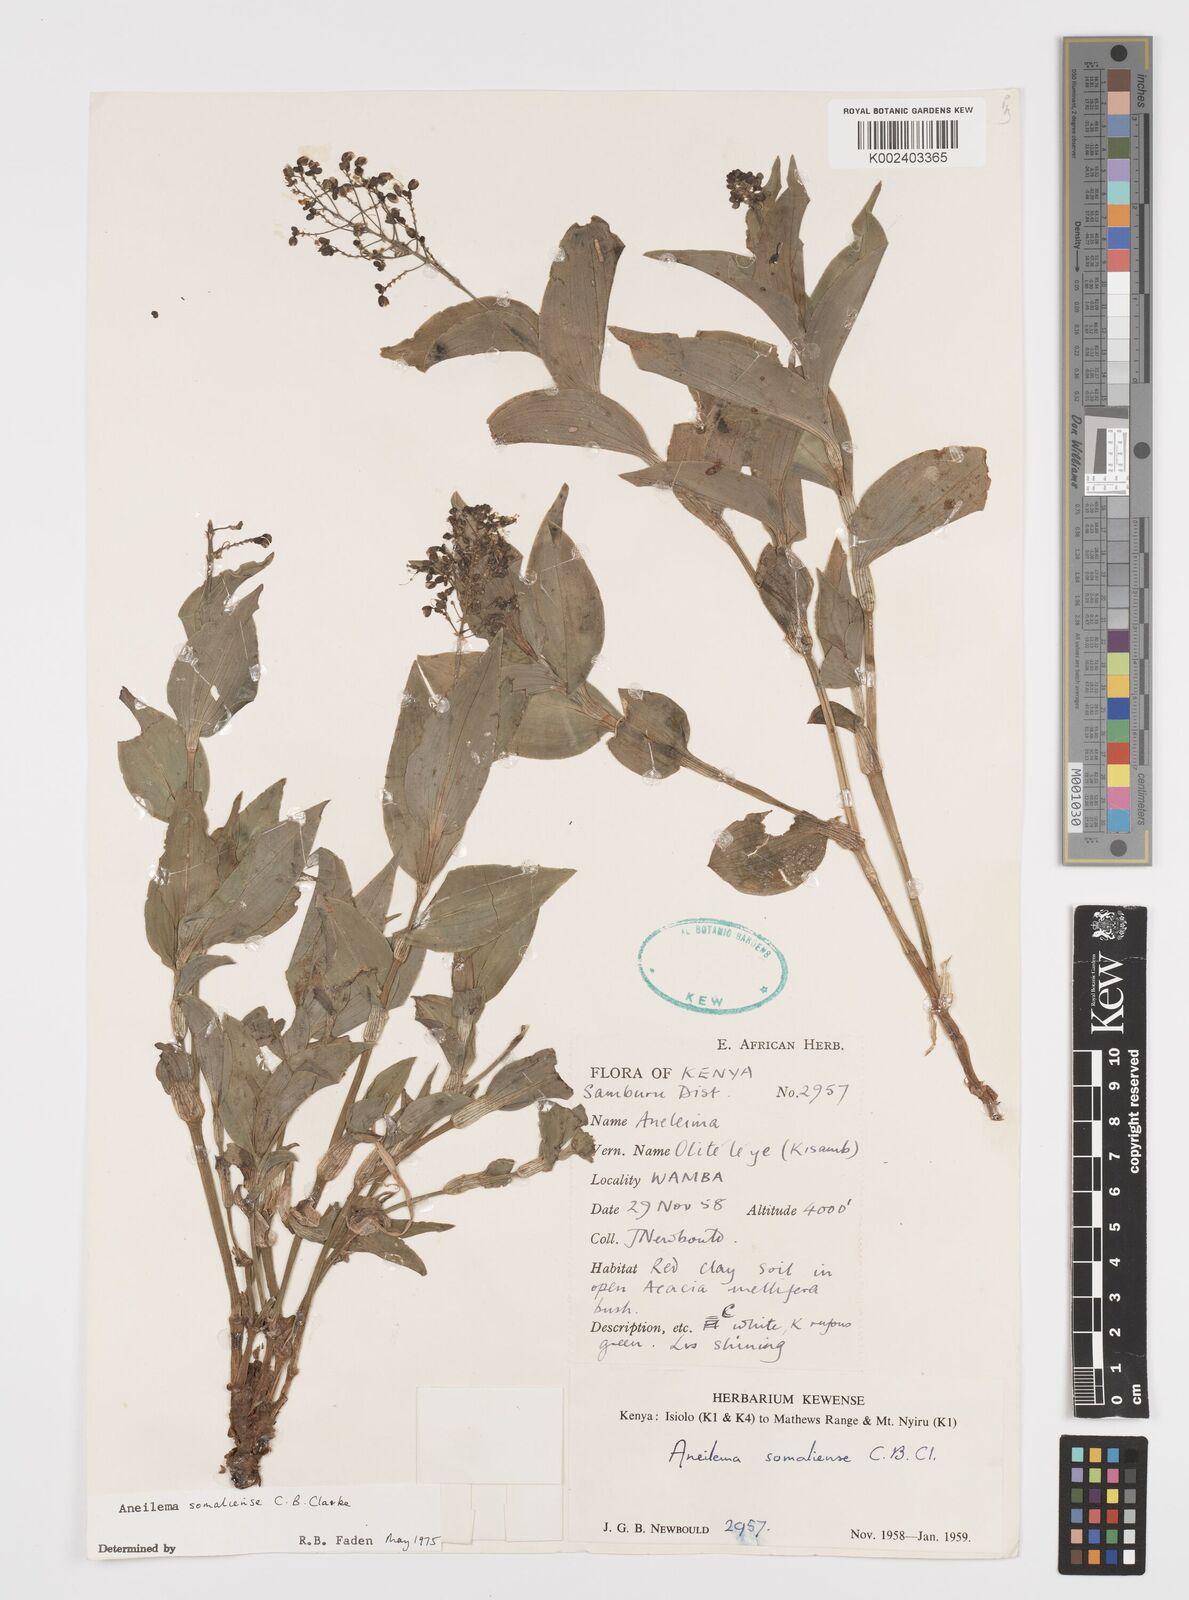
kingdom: Plantae
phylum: Tracheophyta
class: Liliopsida
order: Commelinales
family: Commelinaceae
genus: Aneilema
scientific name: Aneilema somaliense
